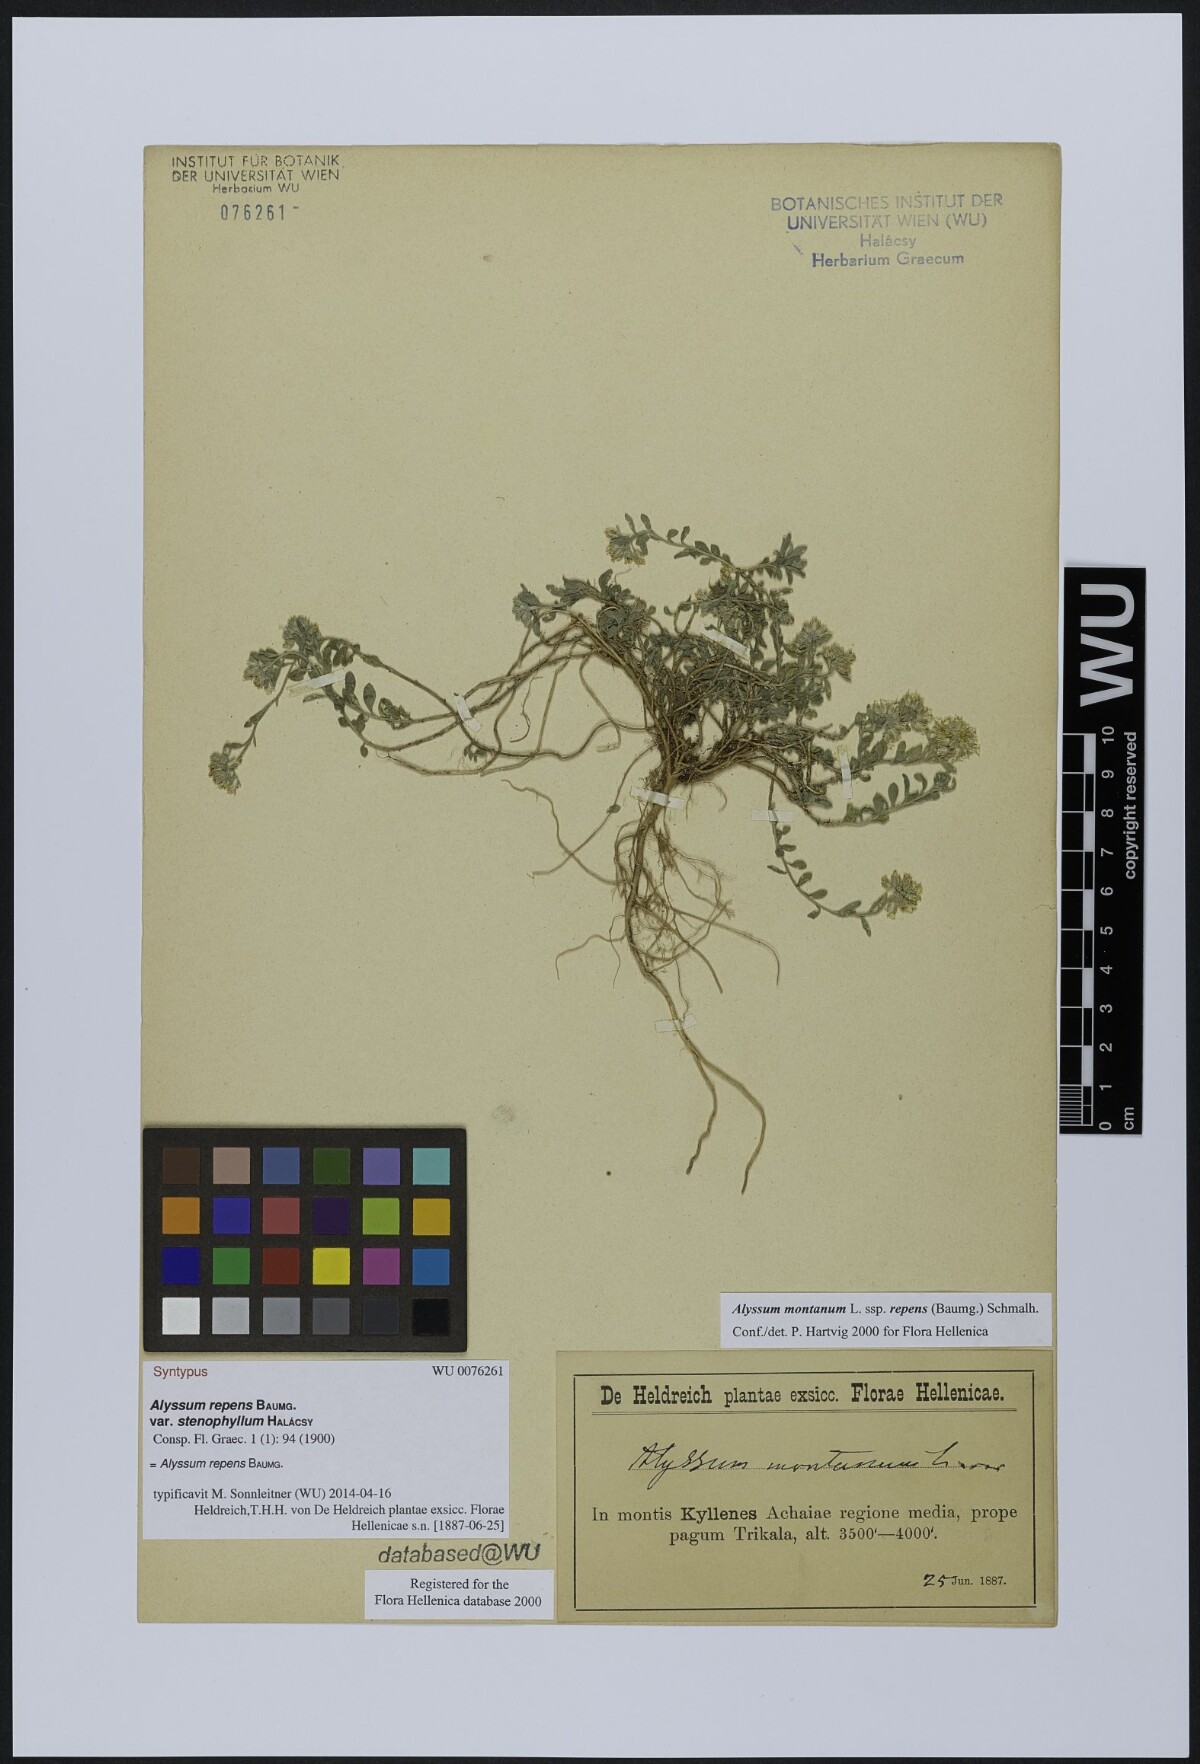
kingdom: Plantae
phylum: Tracheophyta
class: Magnoliopsida
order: Brassicales
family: Brassicaceae
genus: Alyssum
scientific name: Alyssum trichostachyum
